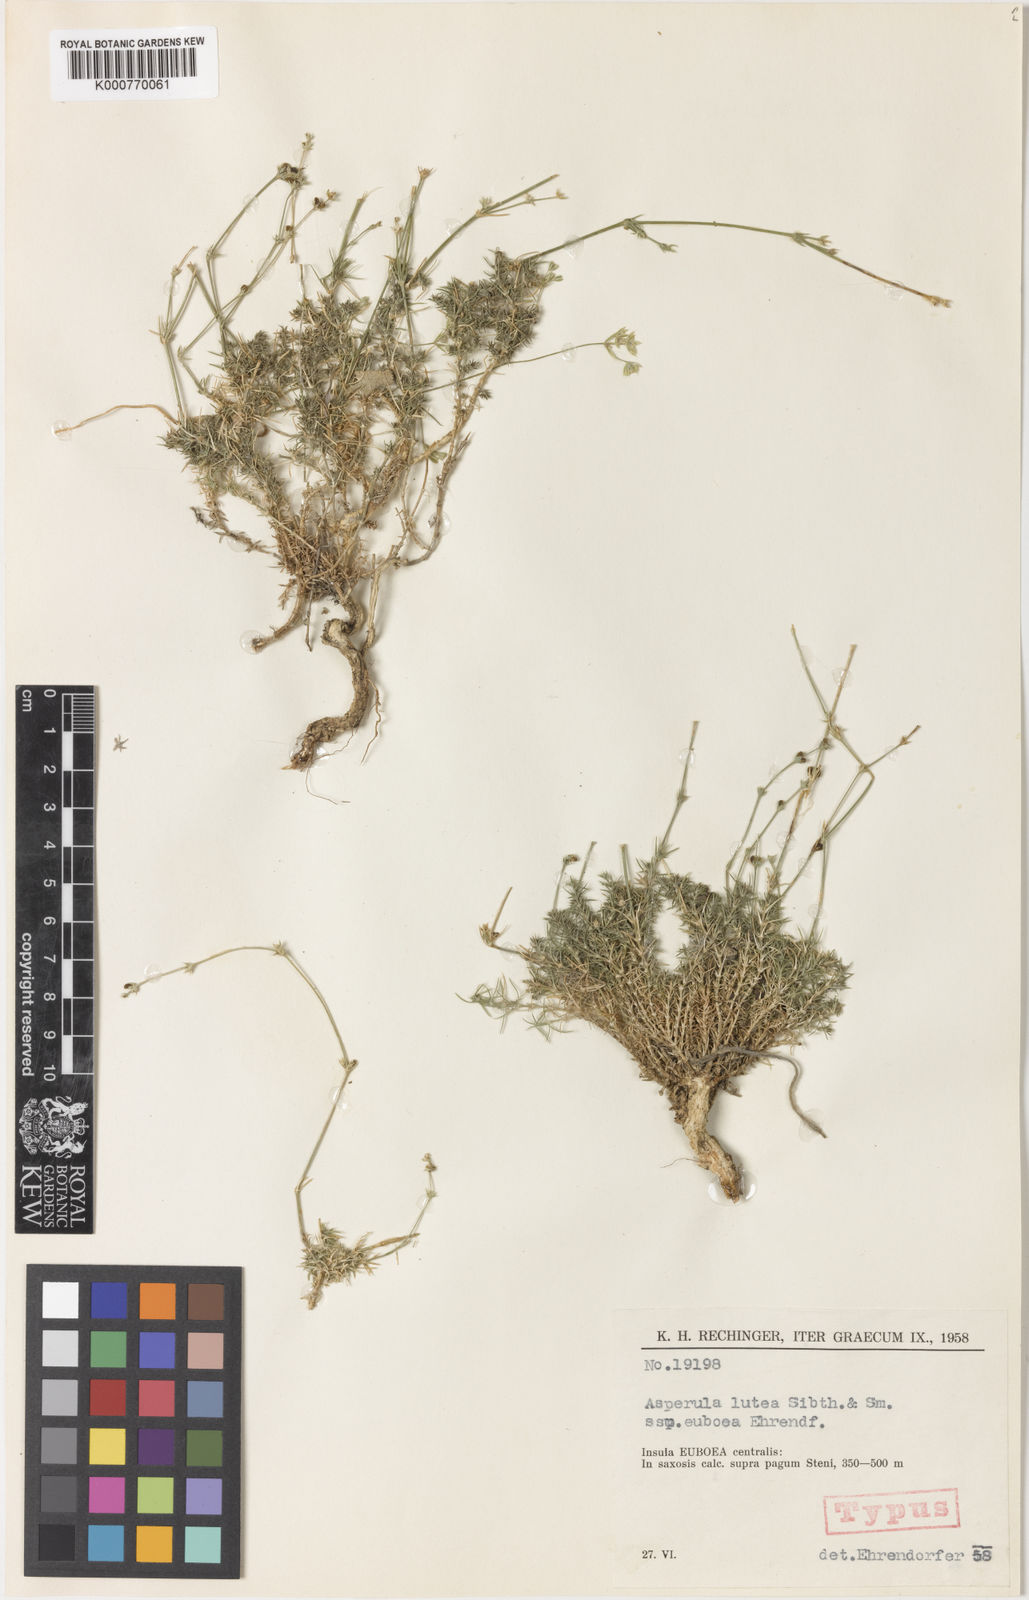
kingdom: Plantae
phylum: Tracheophyta
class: Magnoliopsida
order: Gentianales
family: Rubiaceae
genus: Cynanchica
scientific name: Cynanchica lutea
